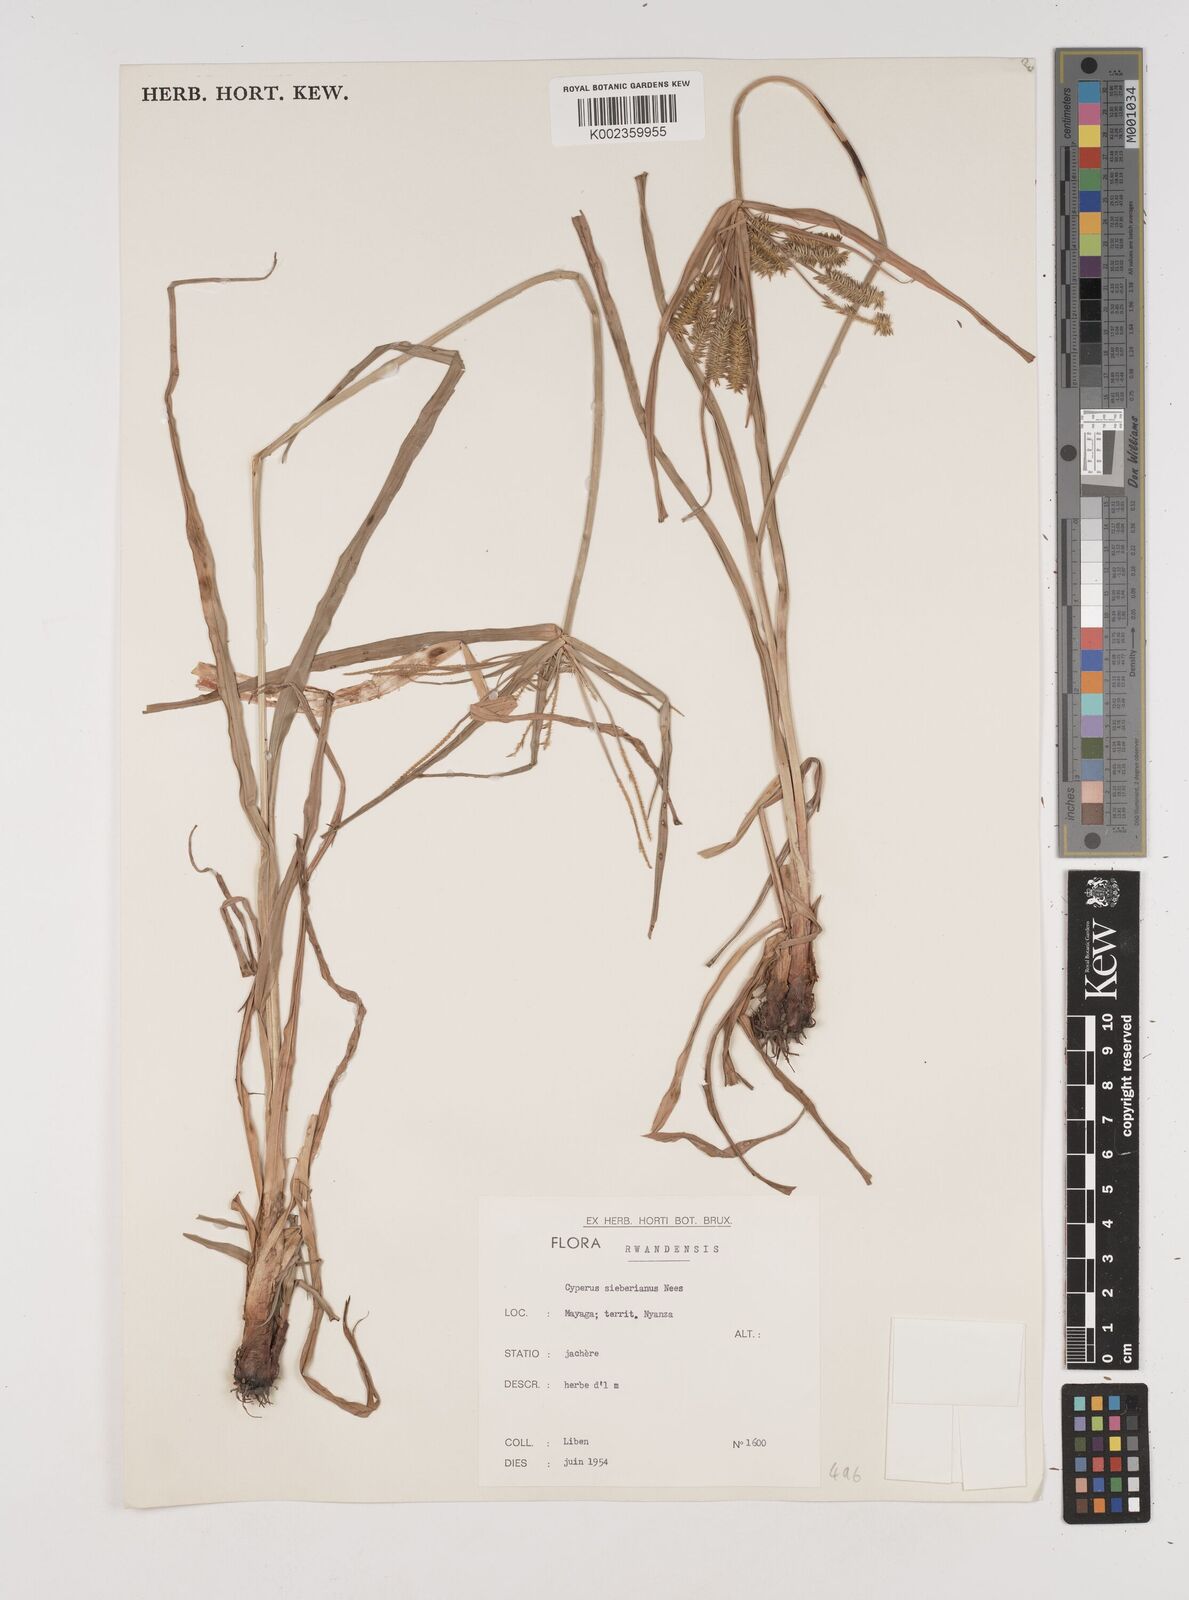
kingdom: Plantae
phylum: Tracheophyta
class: Liliopsida
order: Poales
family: Cyperaceae
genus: Cyperus
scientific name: Cyperus cyperoides
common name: Pacific island flat sedge
